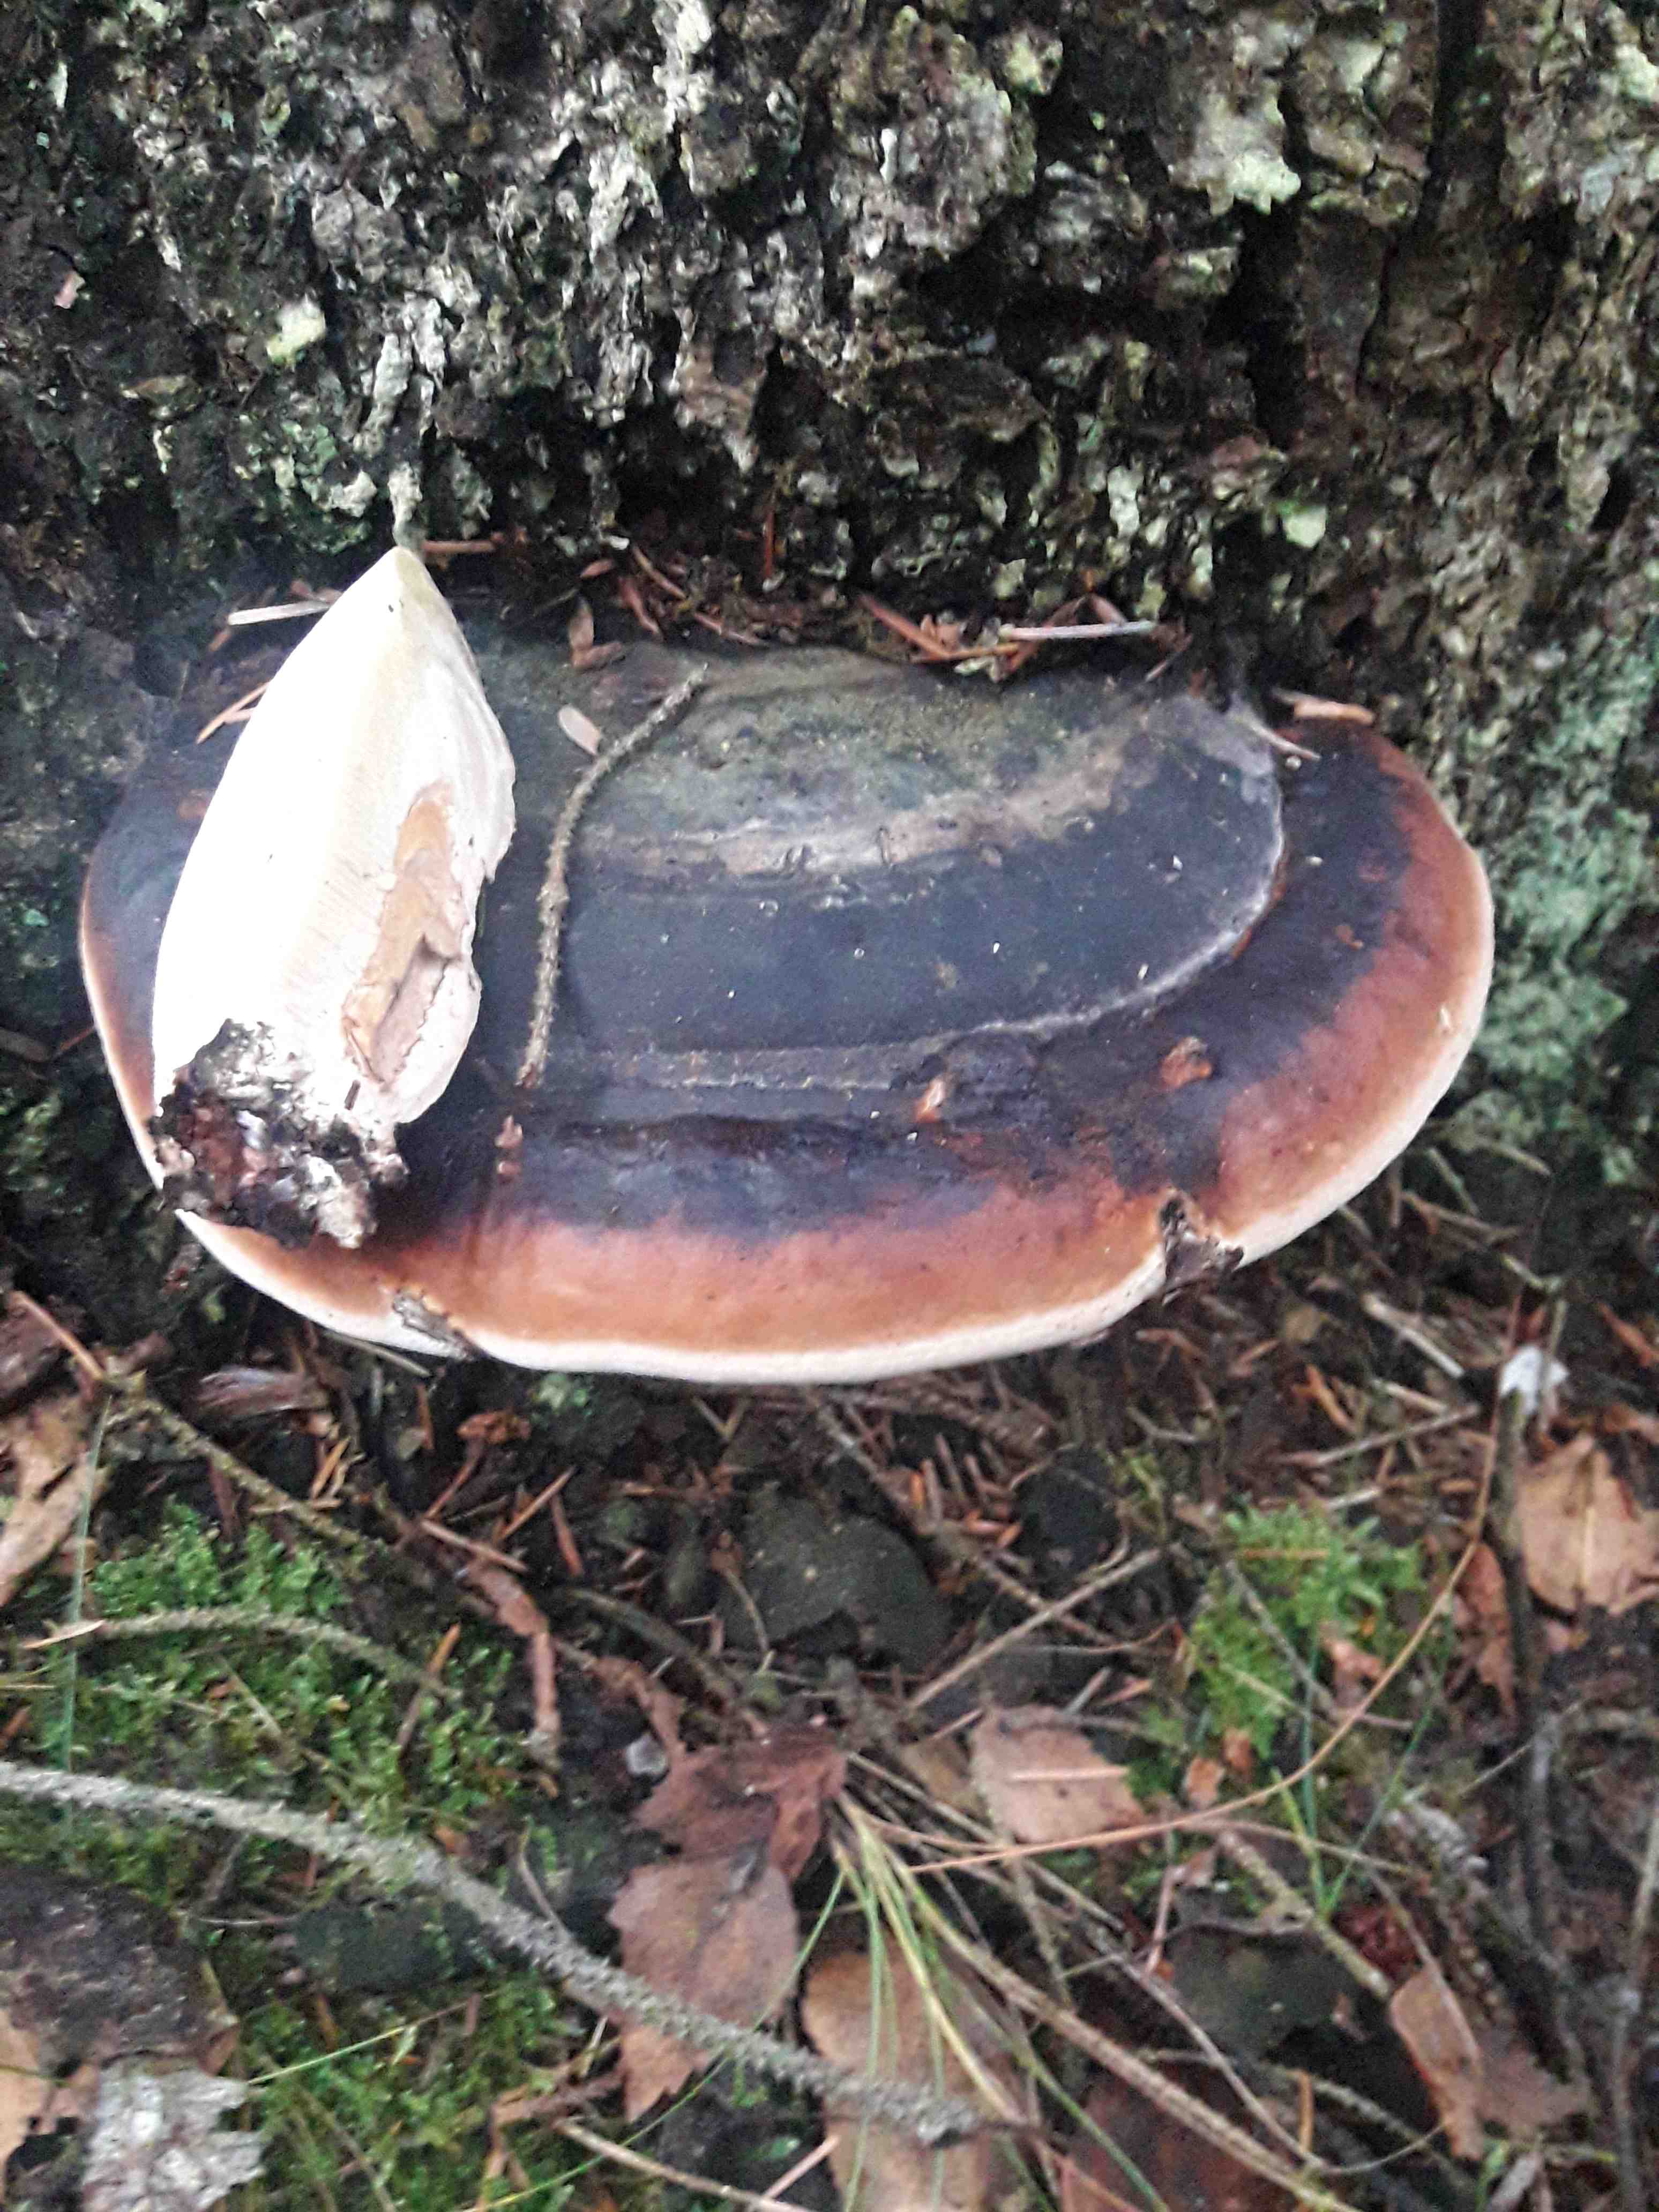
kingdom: Fungi
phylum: Basidiomycota
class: Agaricomycetes
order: Polyporales
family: Fomitopsidaceae
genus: Fomitopsis
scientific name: Fomitopsis pinicola
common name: randbæltet hovporesvamp
